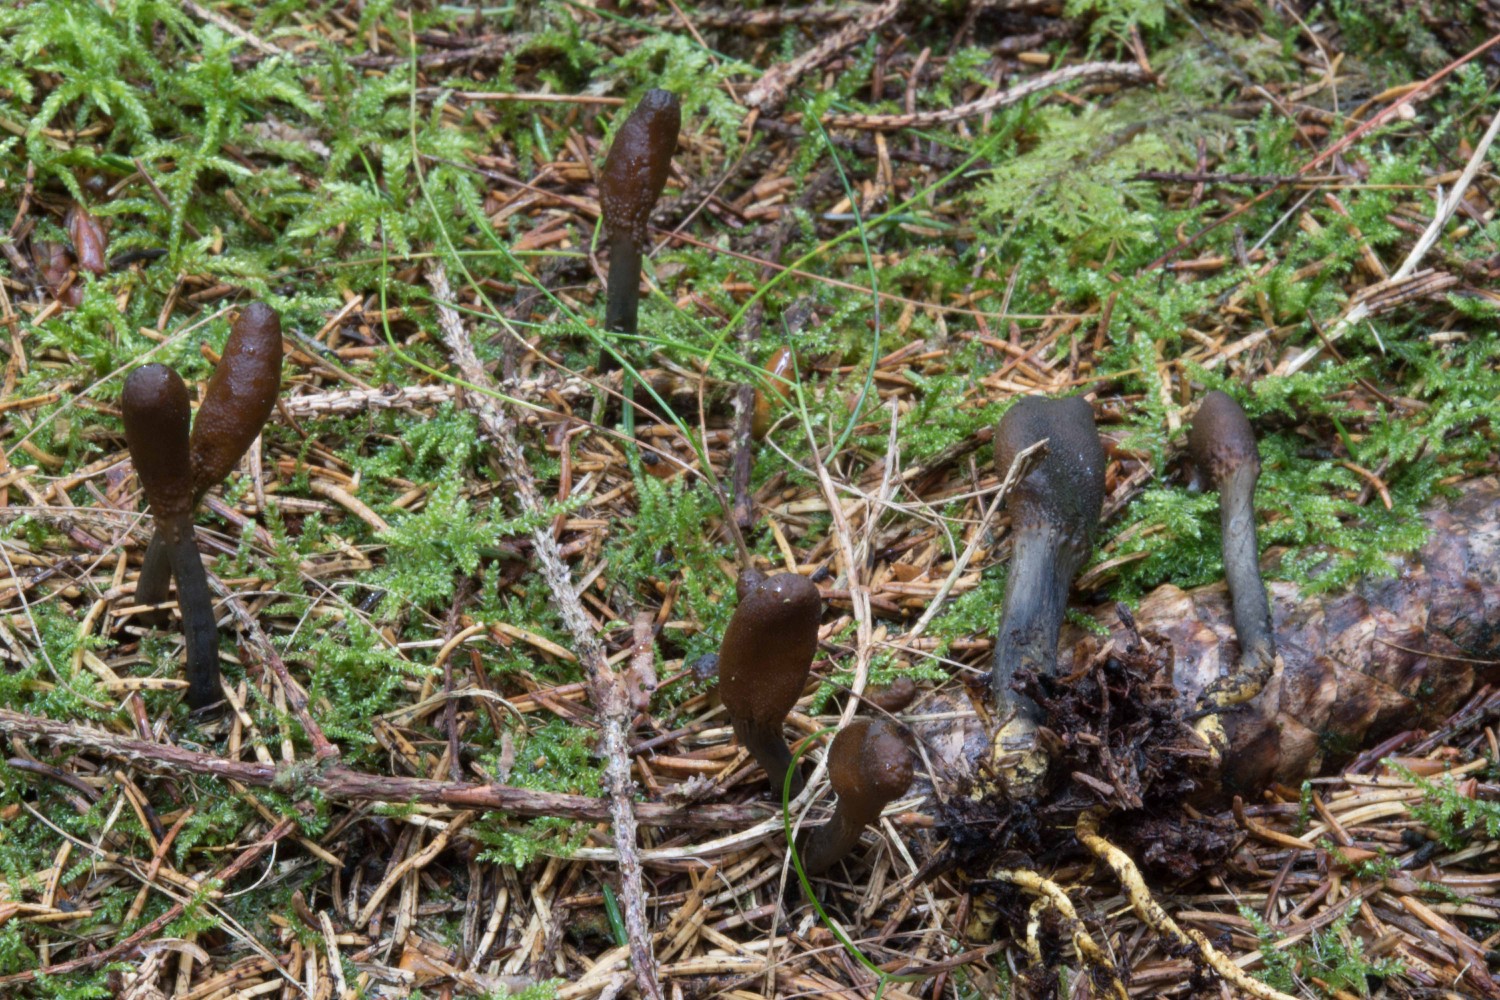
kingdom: Fungi
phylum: Ascomycota
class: Sordariomycetes
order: Hypocreales
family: Ophiocordycipitaceae
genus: Tolypocladium
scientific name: Tolypocladium ophioglossoides
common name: slank snyltekølle
